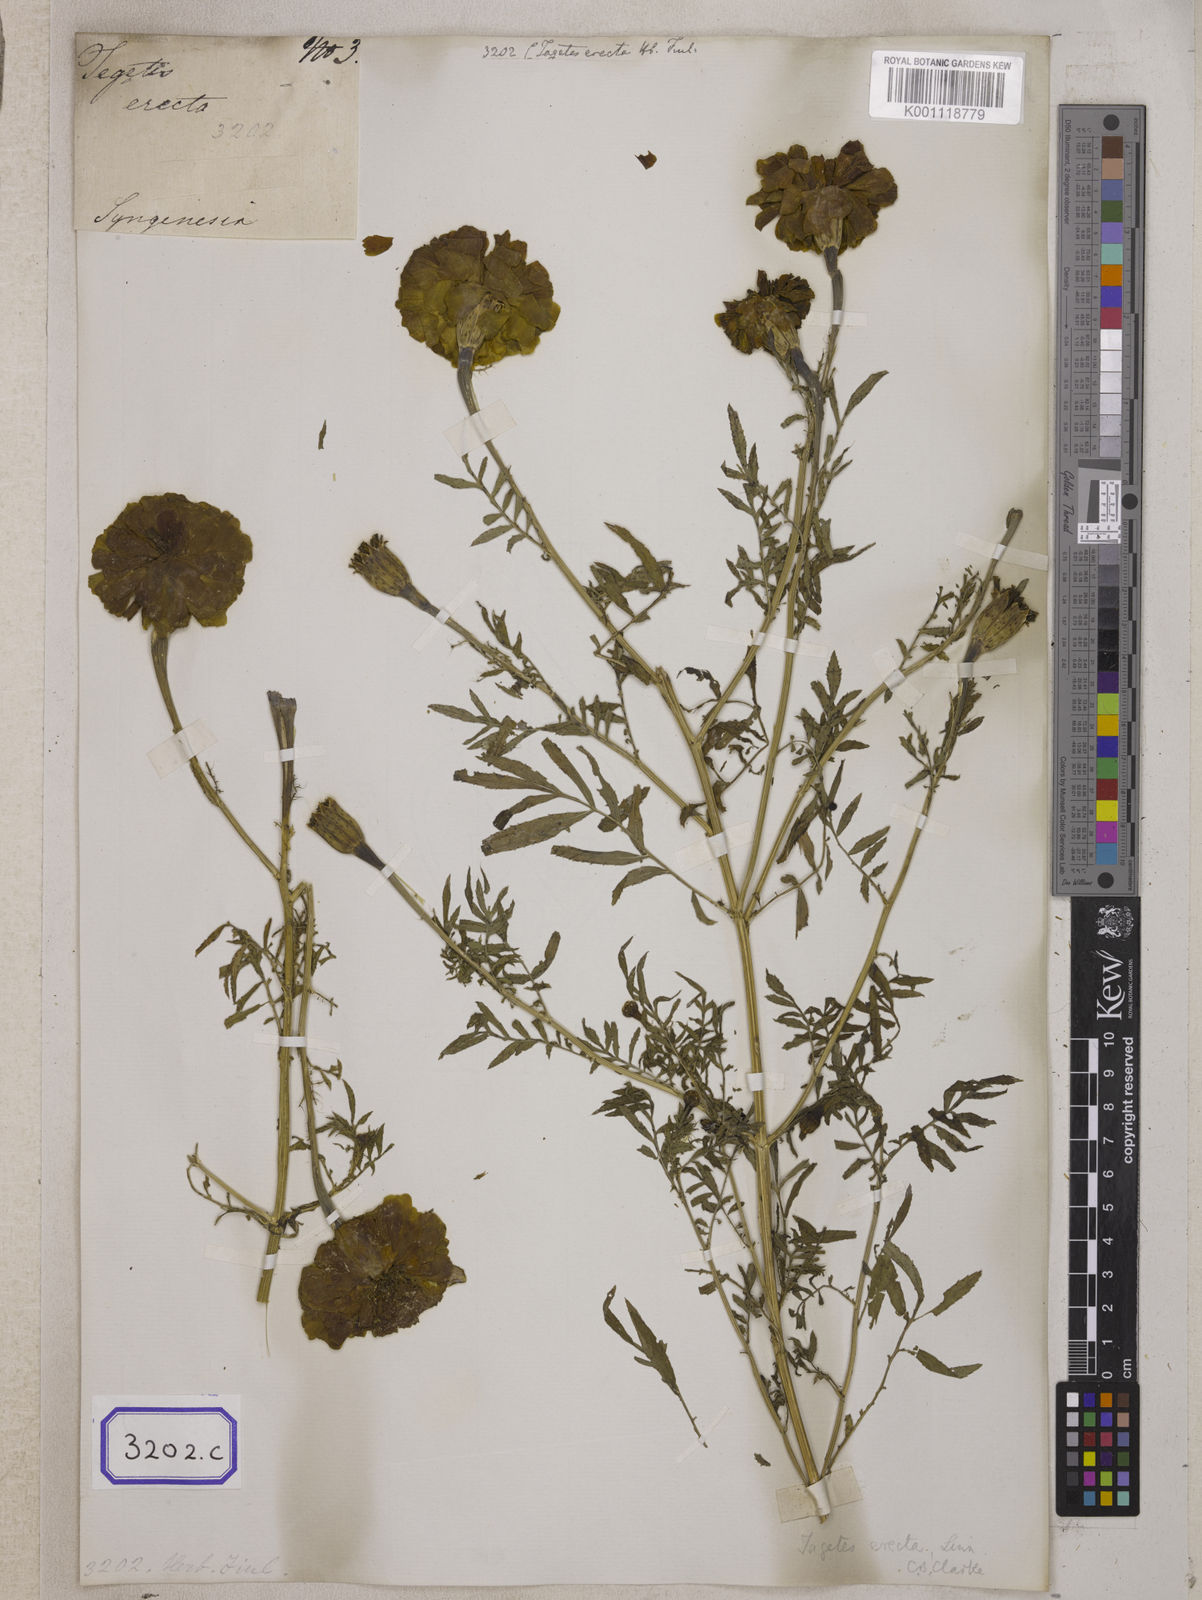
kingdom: Plantae
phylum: Tracheophyta
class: Magnoliopsida
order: Asterales
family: Asteraceae
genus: Tagetes
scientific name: Tagetes erecta
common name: African marigold
